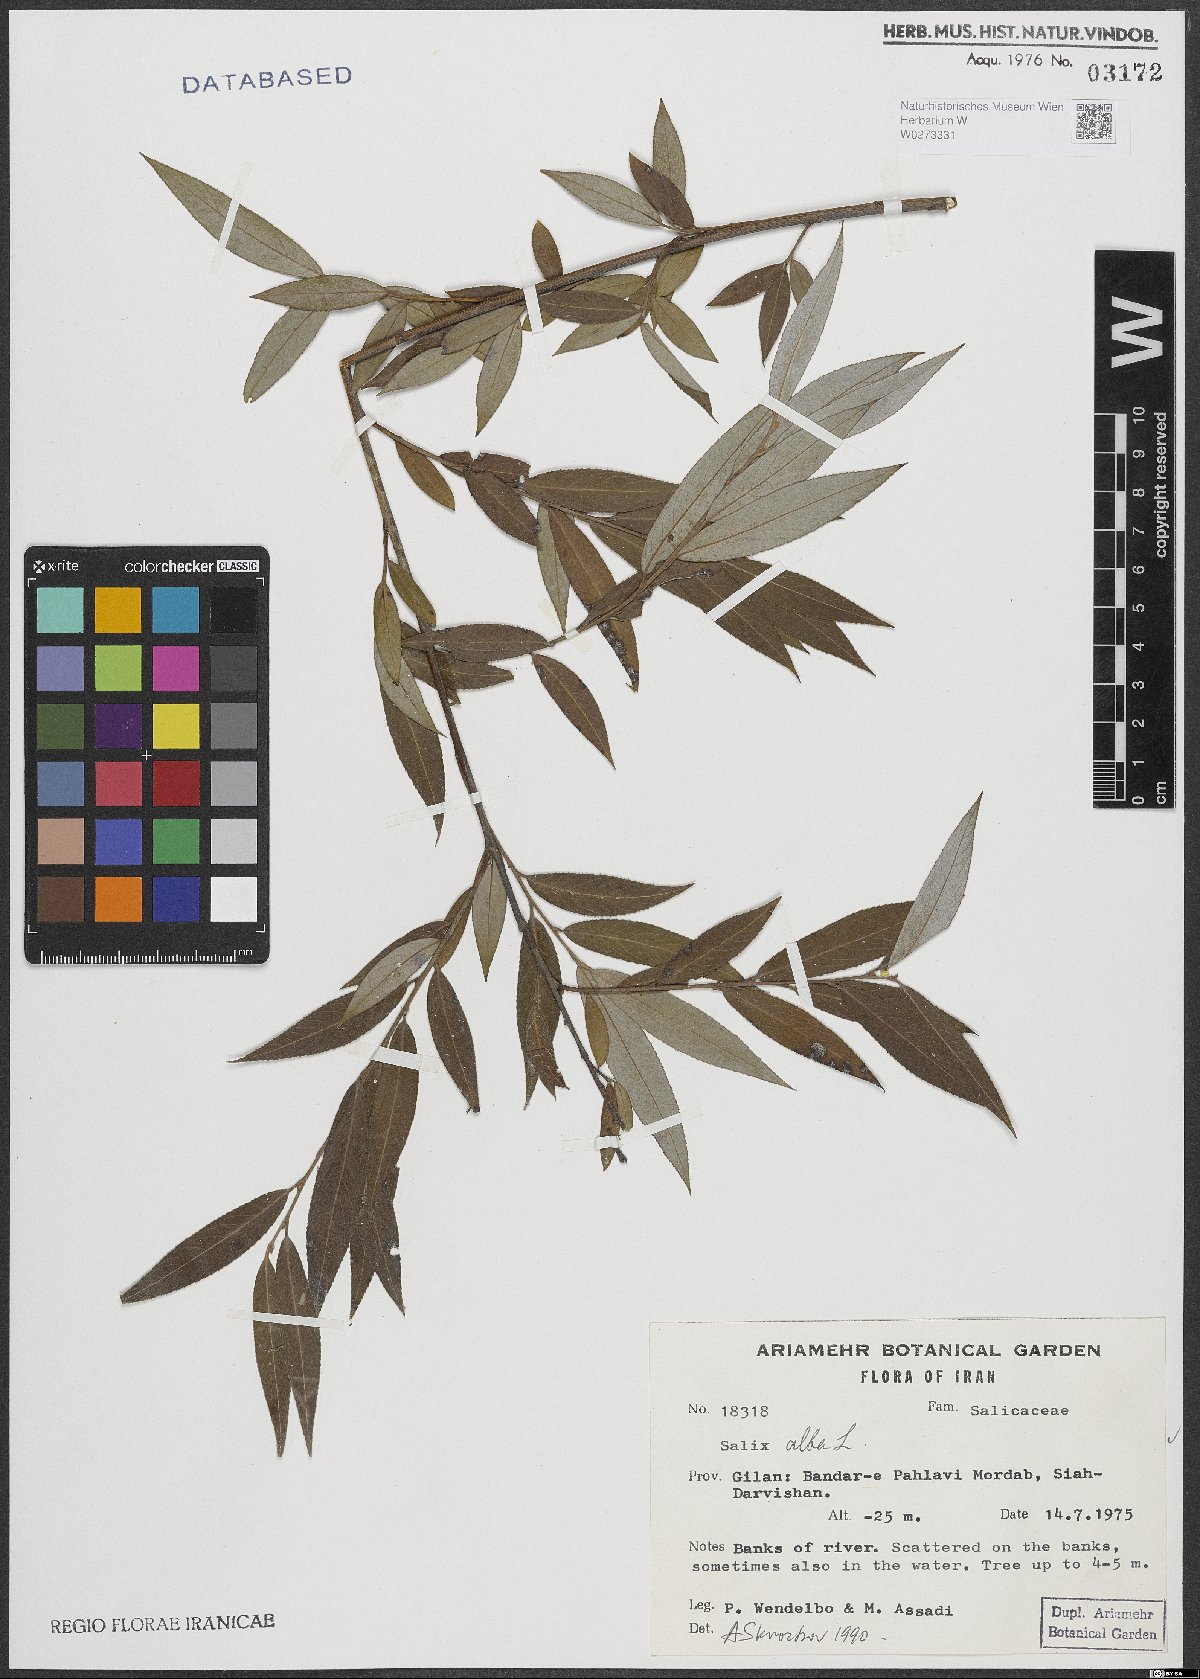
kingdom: Plantae
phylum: Tracheophyta
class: Magnoliopsida
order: Malpighiales
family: Salicaceae
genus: Salix
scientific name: Salix alba
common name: White willow
